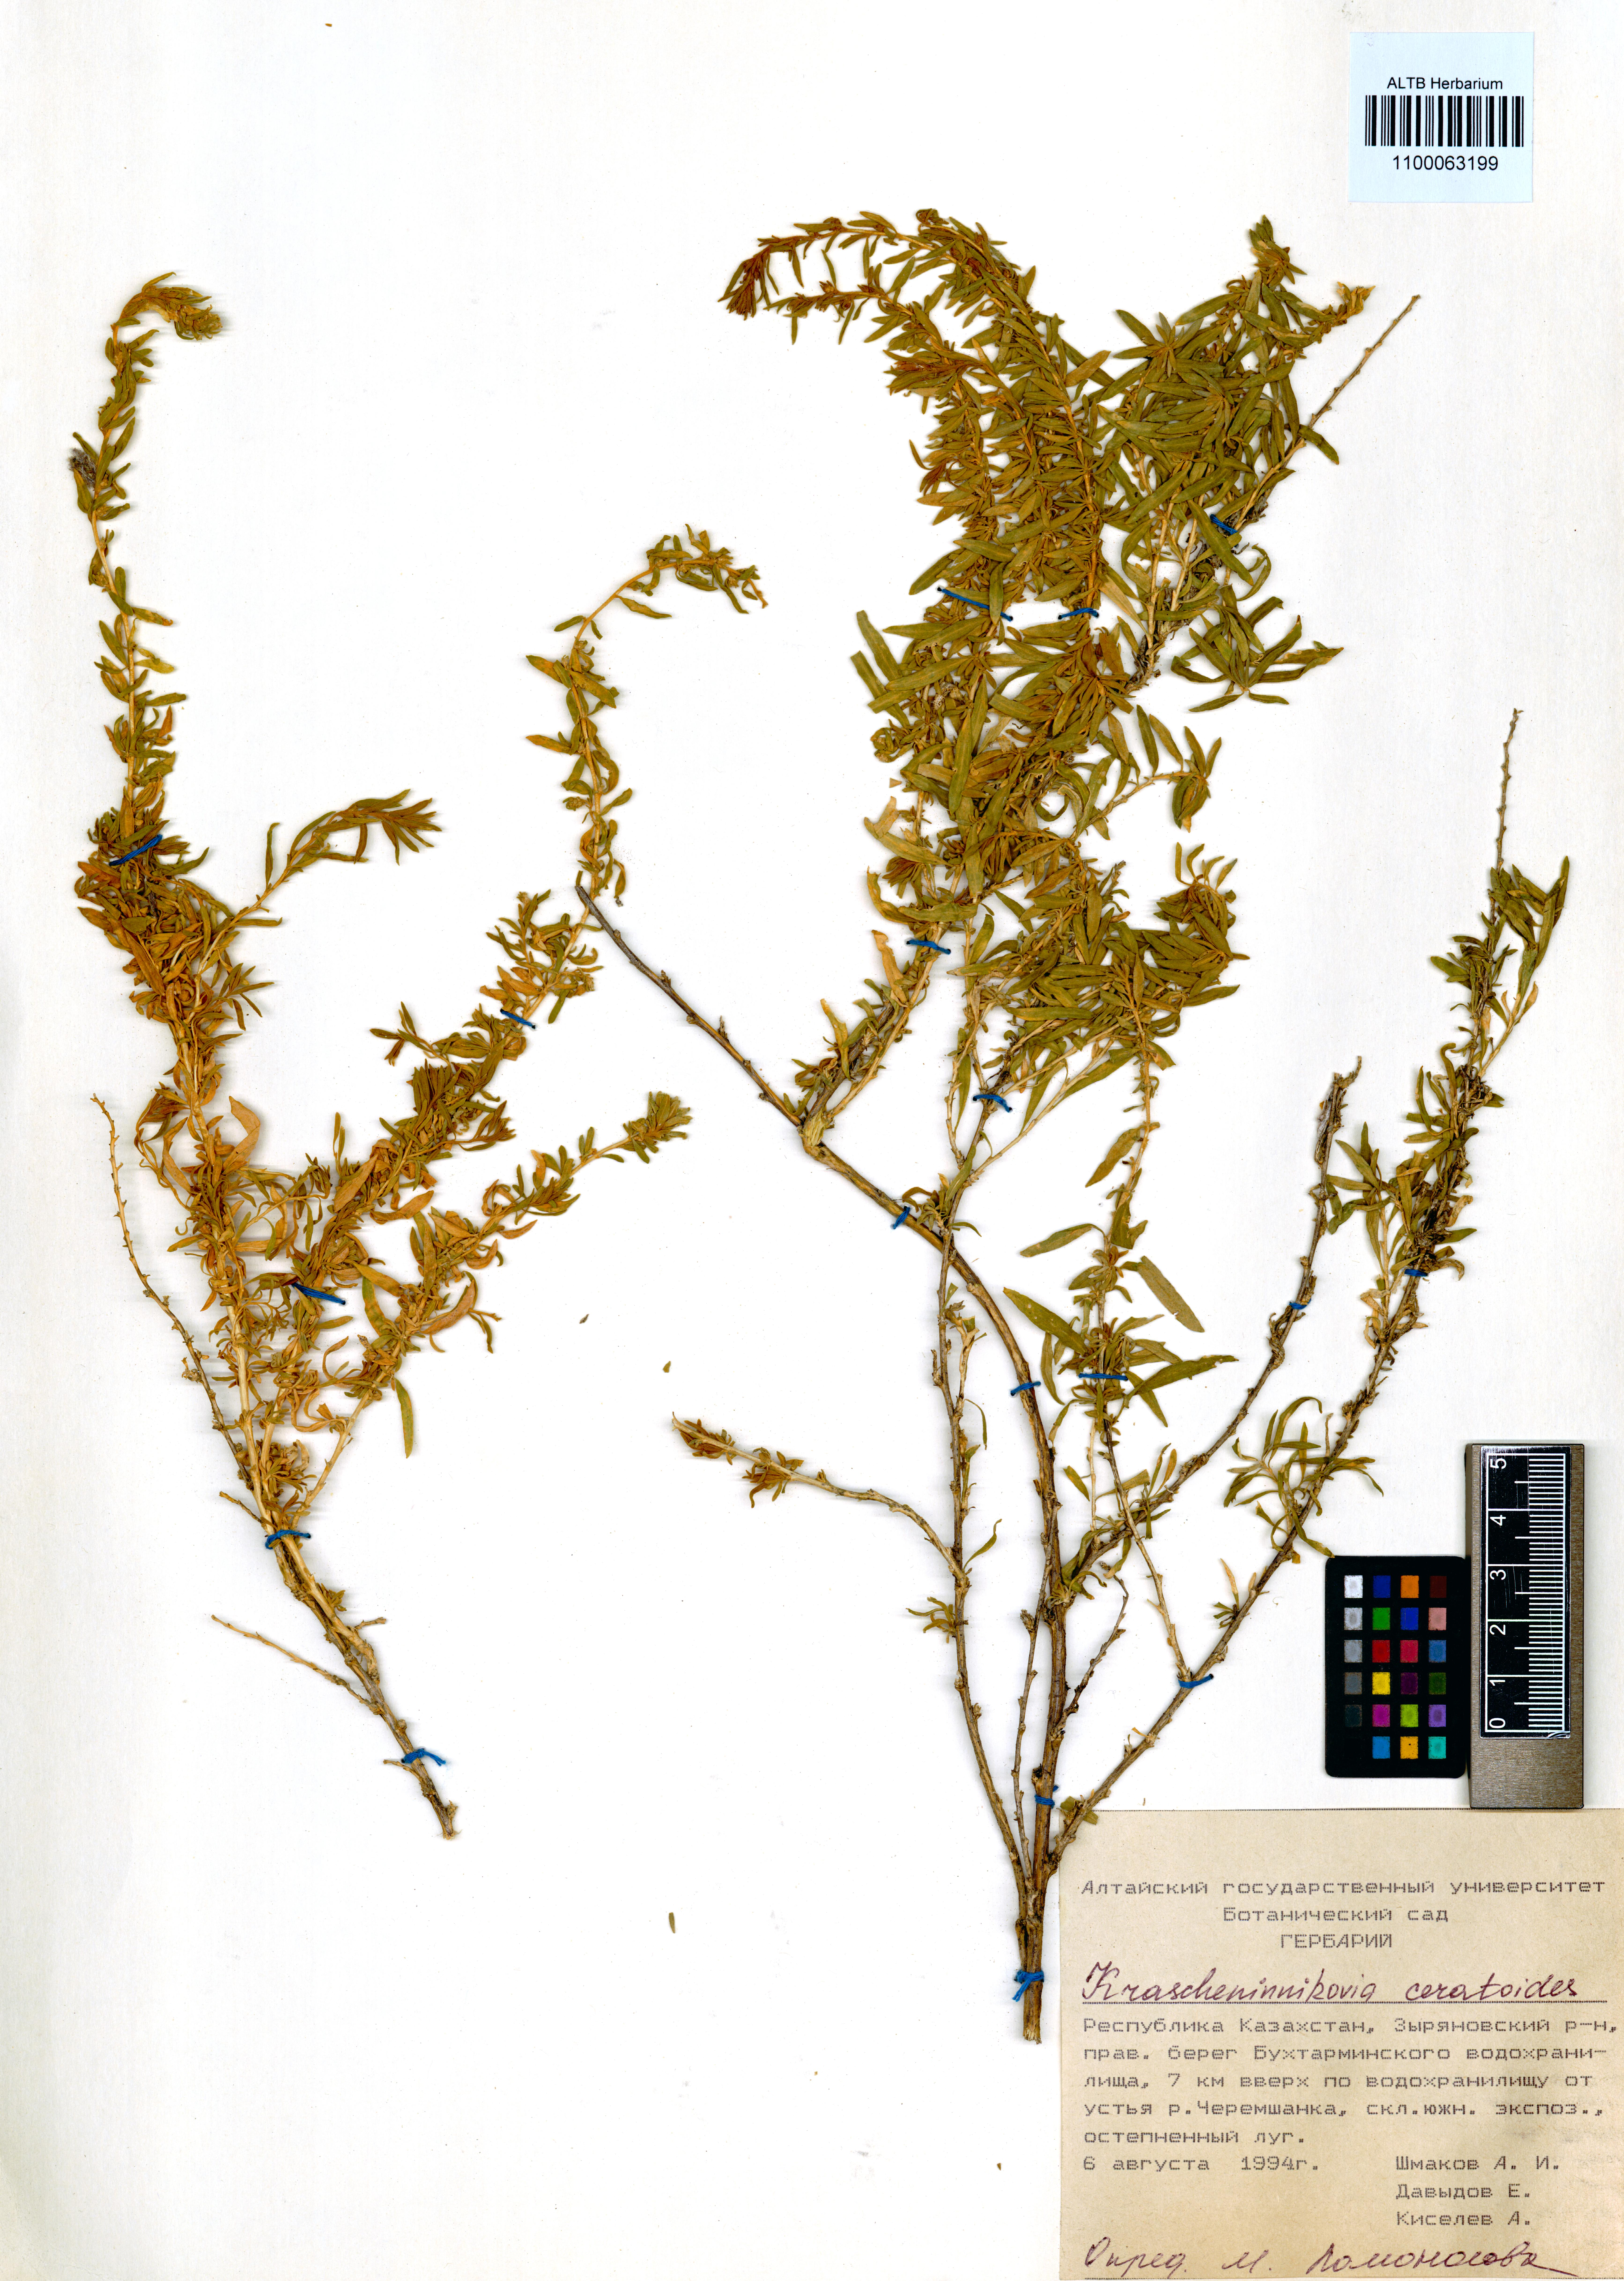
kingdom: Plantae
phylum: Tracheophyta
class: Magnoliopsida
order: Caryophyllales
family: Amaranthaceae
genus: Krascheninnikovia
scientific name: Krascheninnikovia ceratoides
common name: Pamirian winterfat
